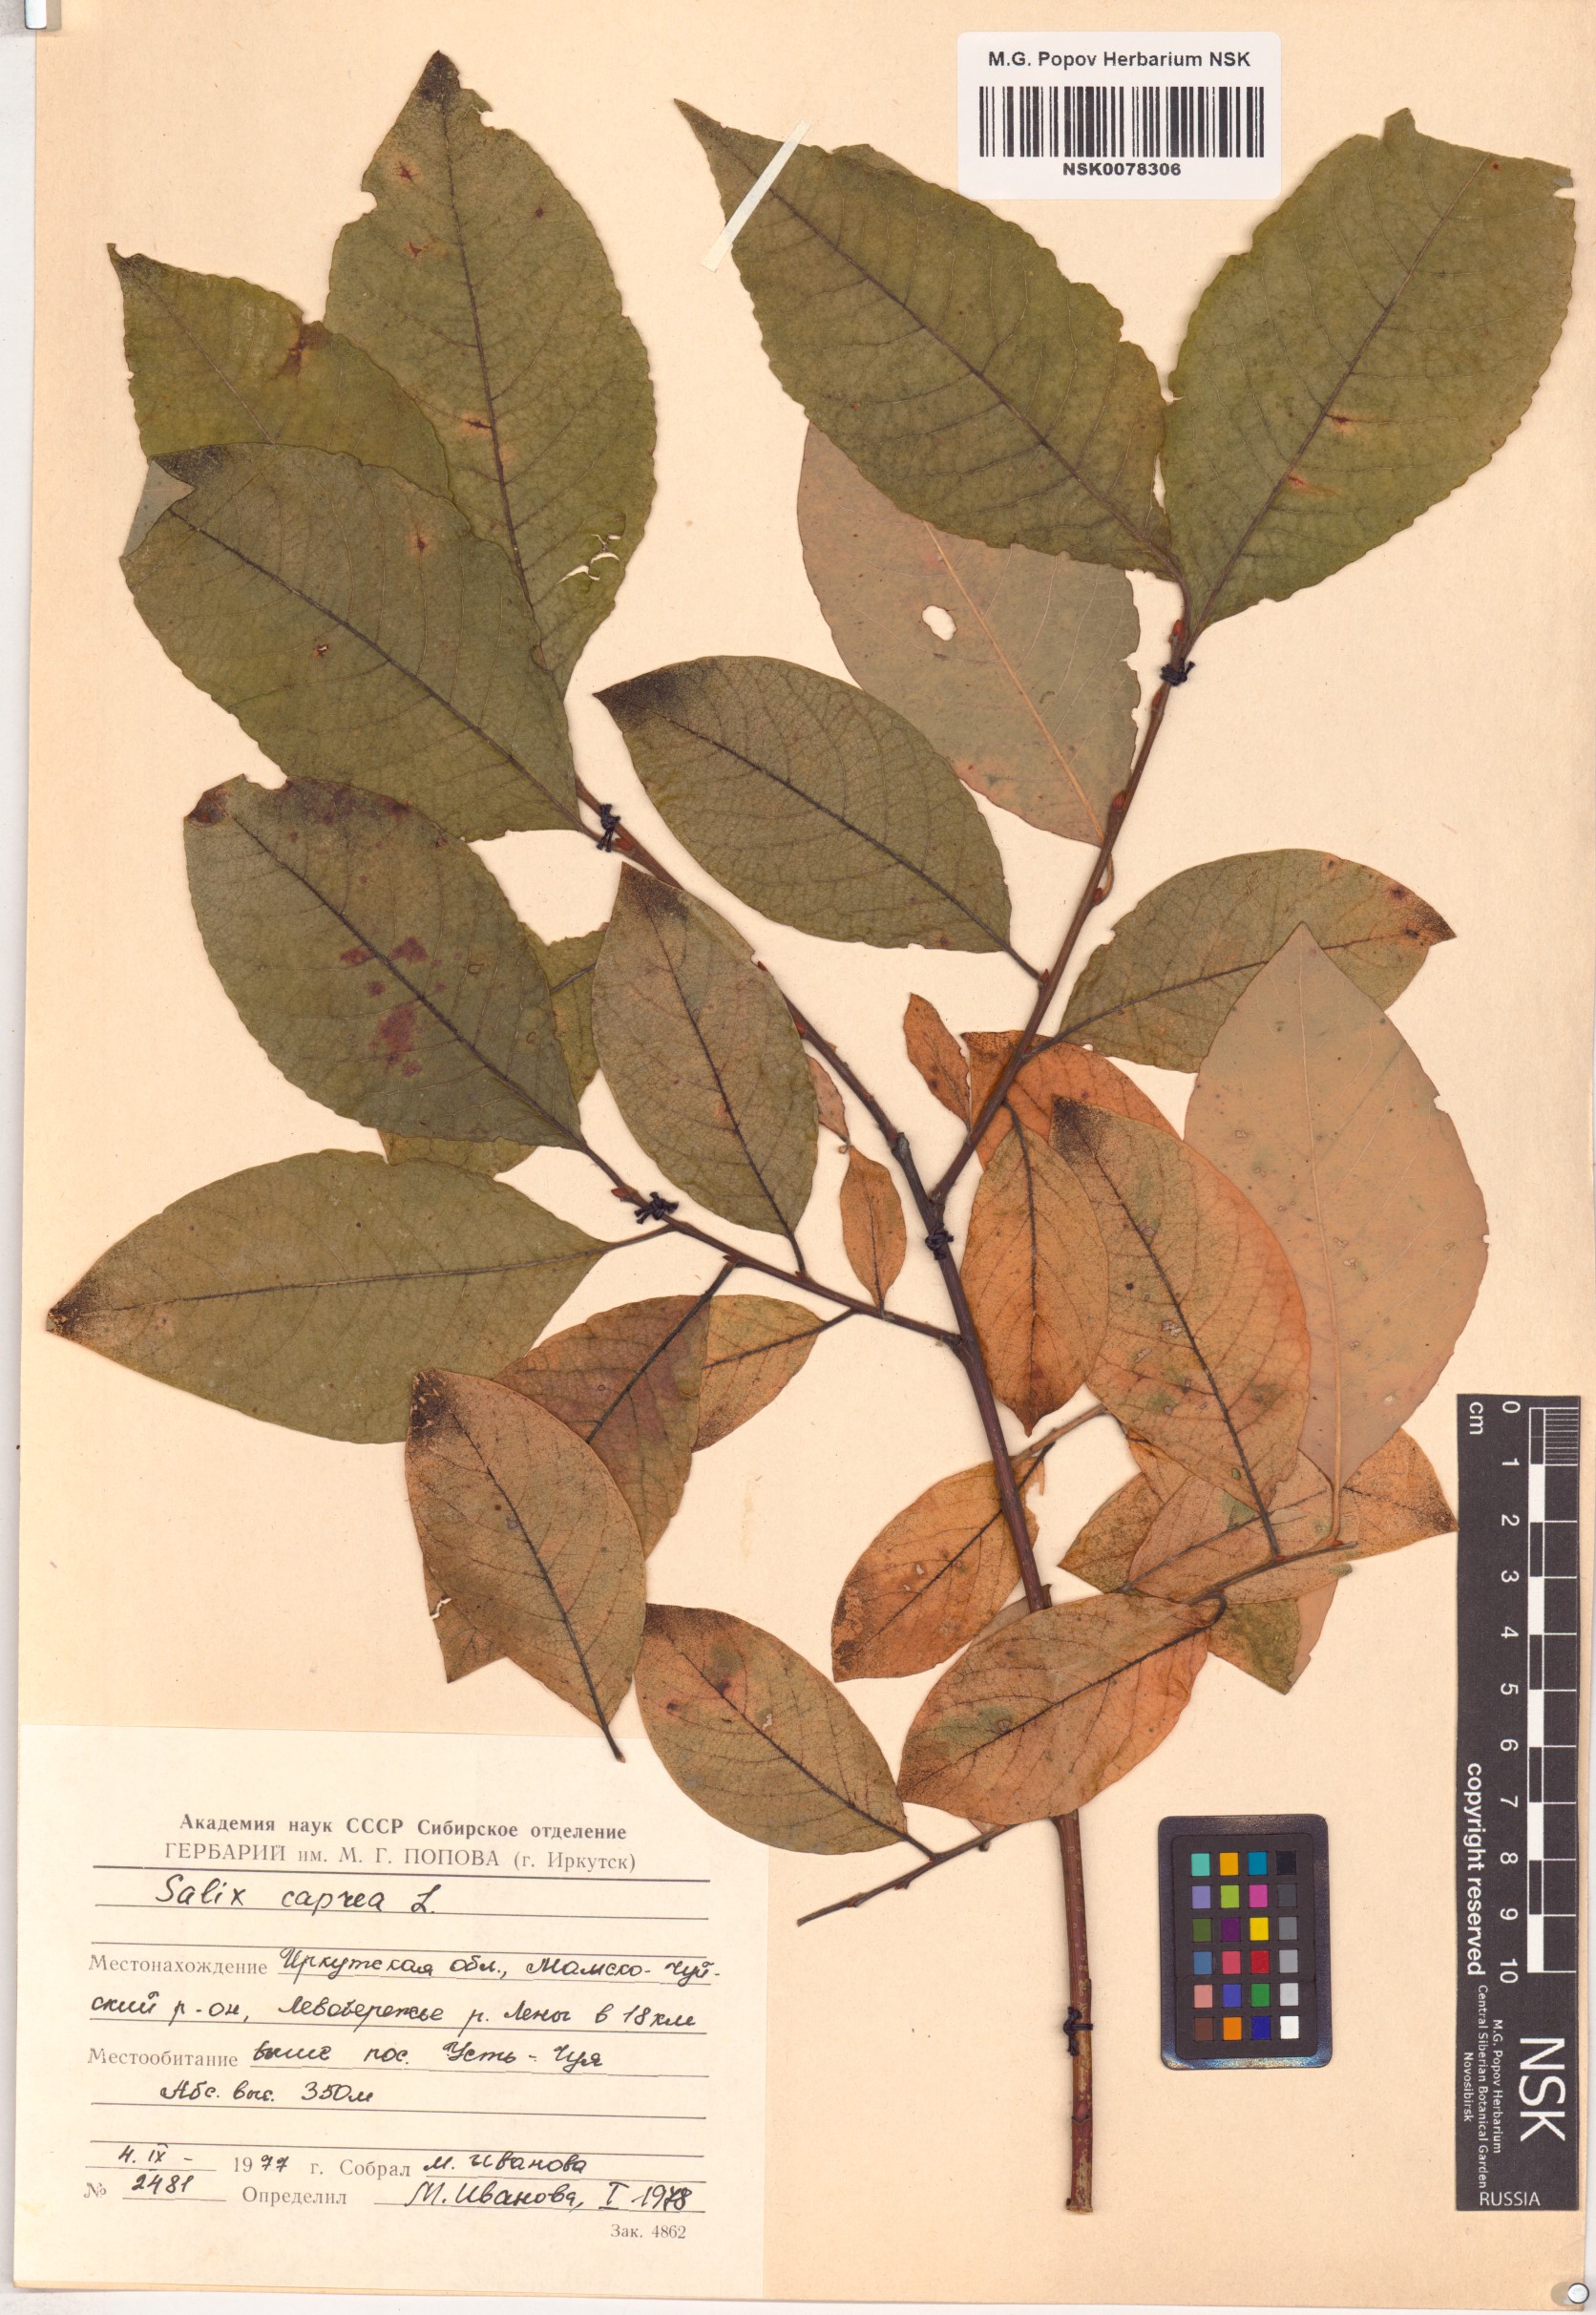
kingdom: Plantae
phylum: Tracheophyta
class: Magnoliopsida
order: Malpighiales
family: Salicaceae
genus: Salix
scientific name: Salix caprea
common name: Goat willow
